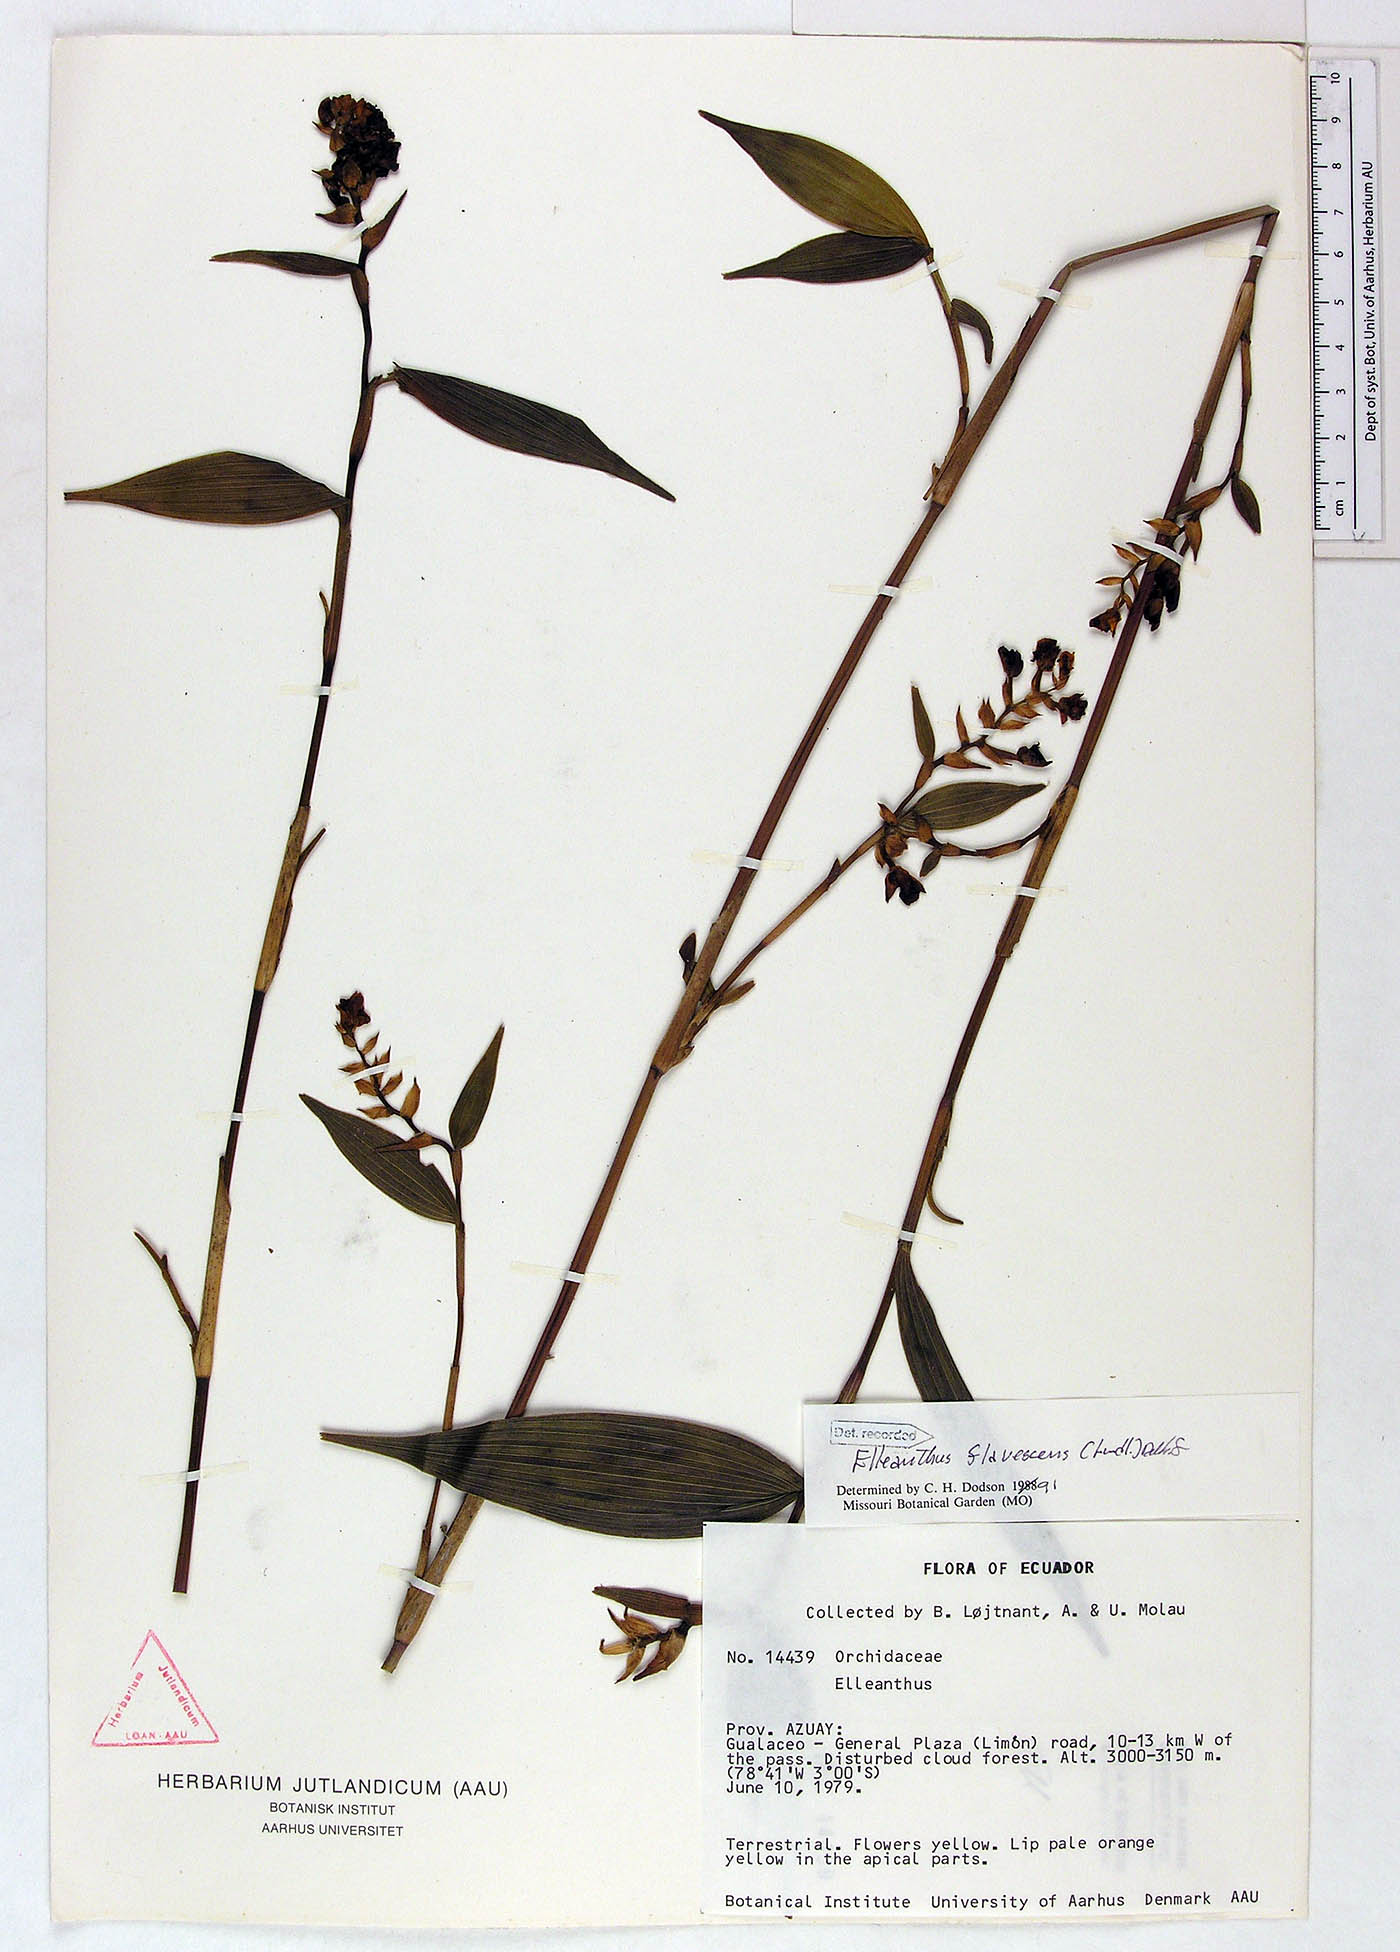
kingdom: Plantae
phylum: Tracheophyta
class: Liliopsida
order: Asparagales
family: Orchidaceae
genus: Elleanthus
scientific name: Elleanthus flavescens
